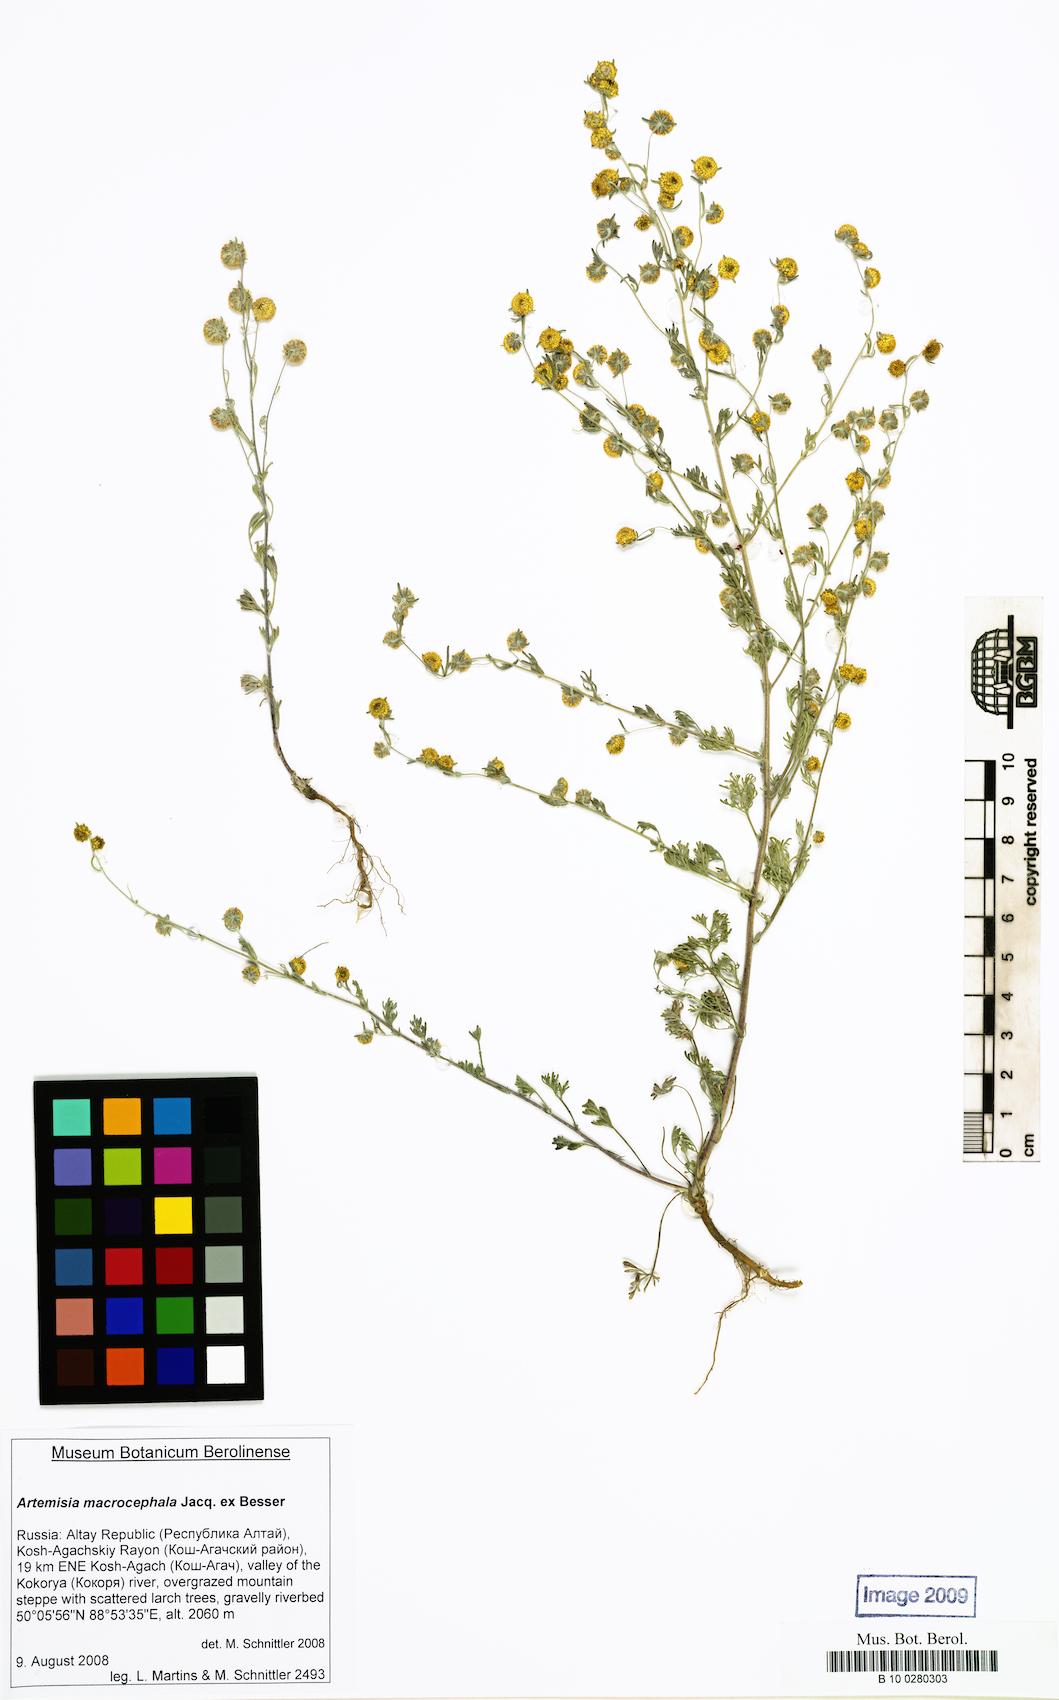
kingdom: Plantae
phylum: Tracheophyta
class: Magnoliopsida
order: Asterales
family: Asteraceae
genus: Artemisia
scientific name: Artemisia macrocephala
